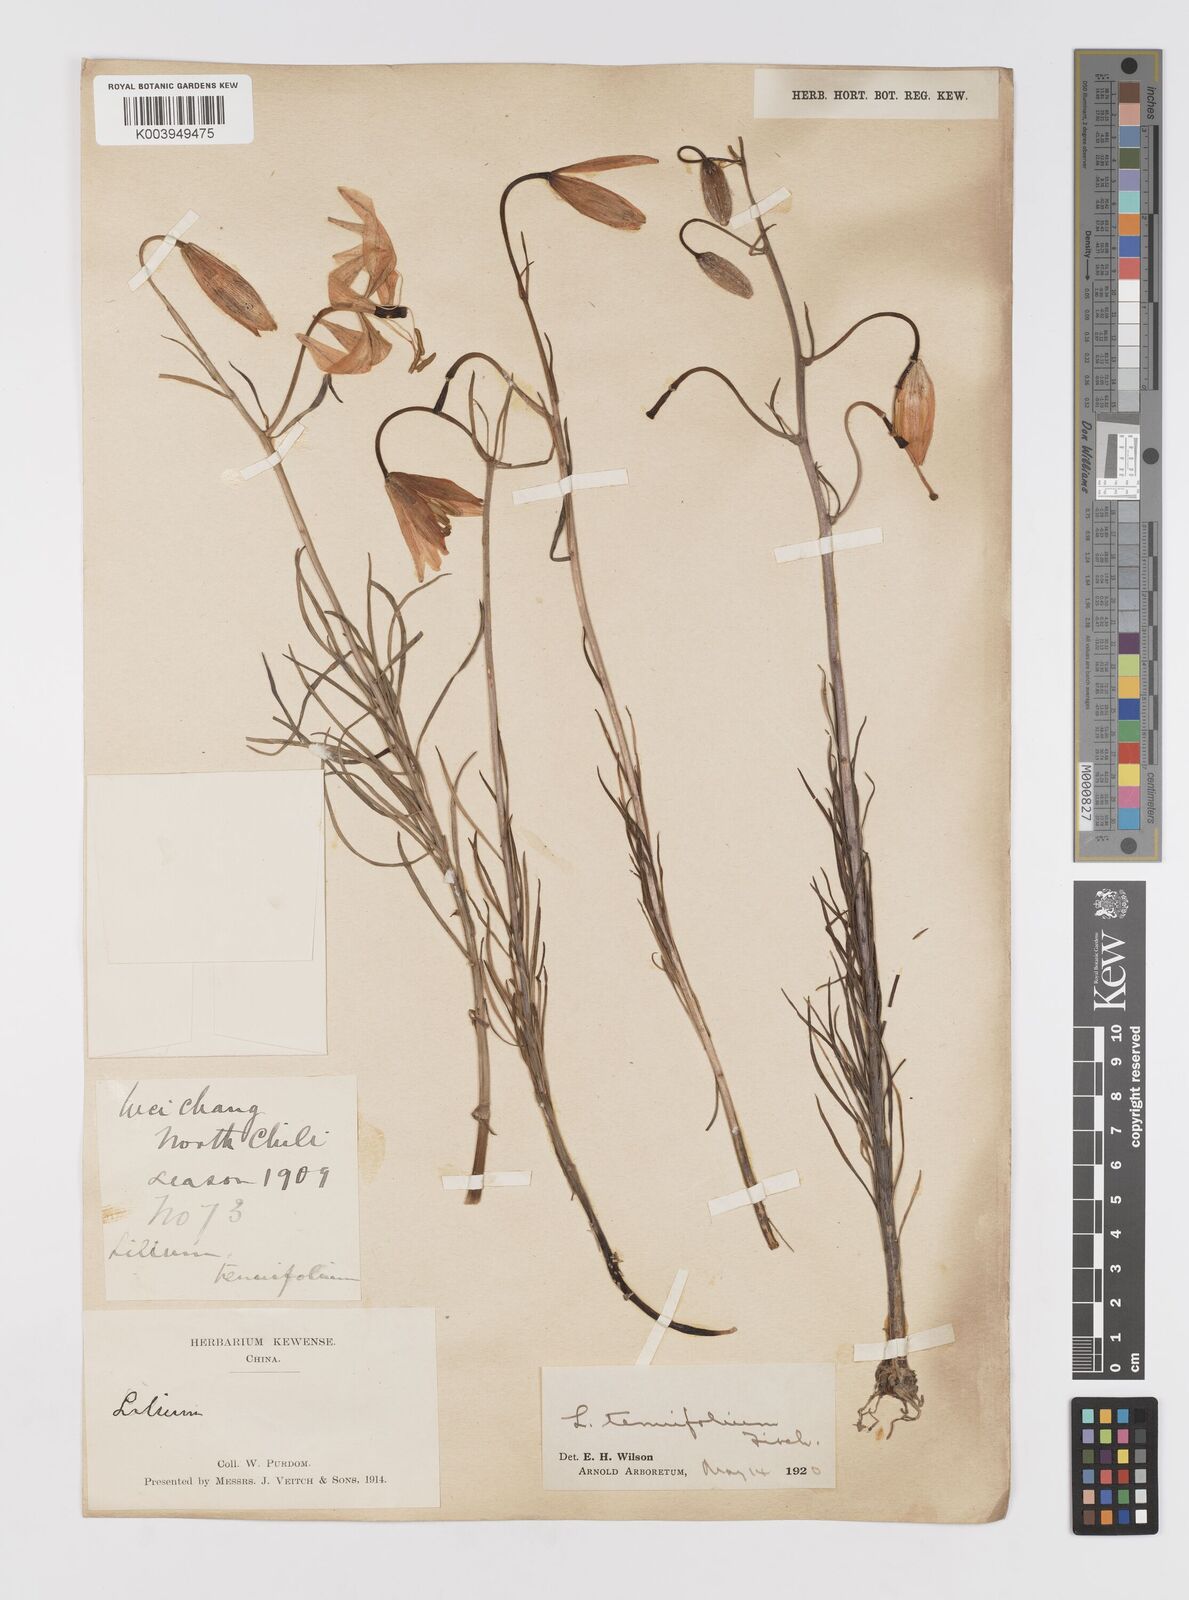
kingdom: Plantae
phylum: Tracheophyta
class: Liliopsida
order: Liliales
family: Liliaceae
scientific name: Liliaceae
